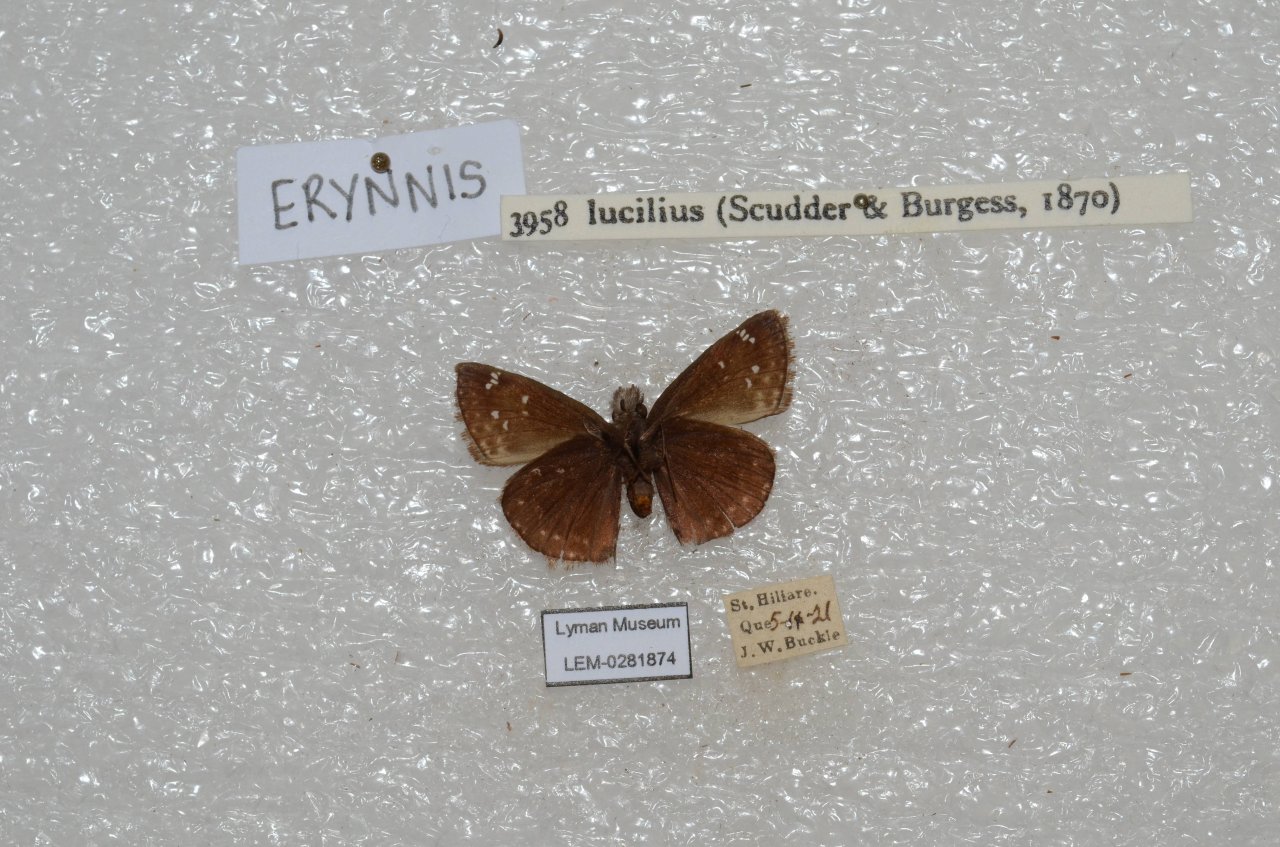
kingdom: Animalia
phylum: Arthropoda
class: Insecta
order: Lepidoptera
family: Hesperiidae
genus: Gesta
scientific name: Gesta
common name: Columbine Duskywing
